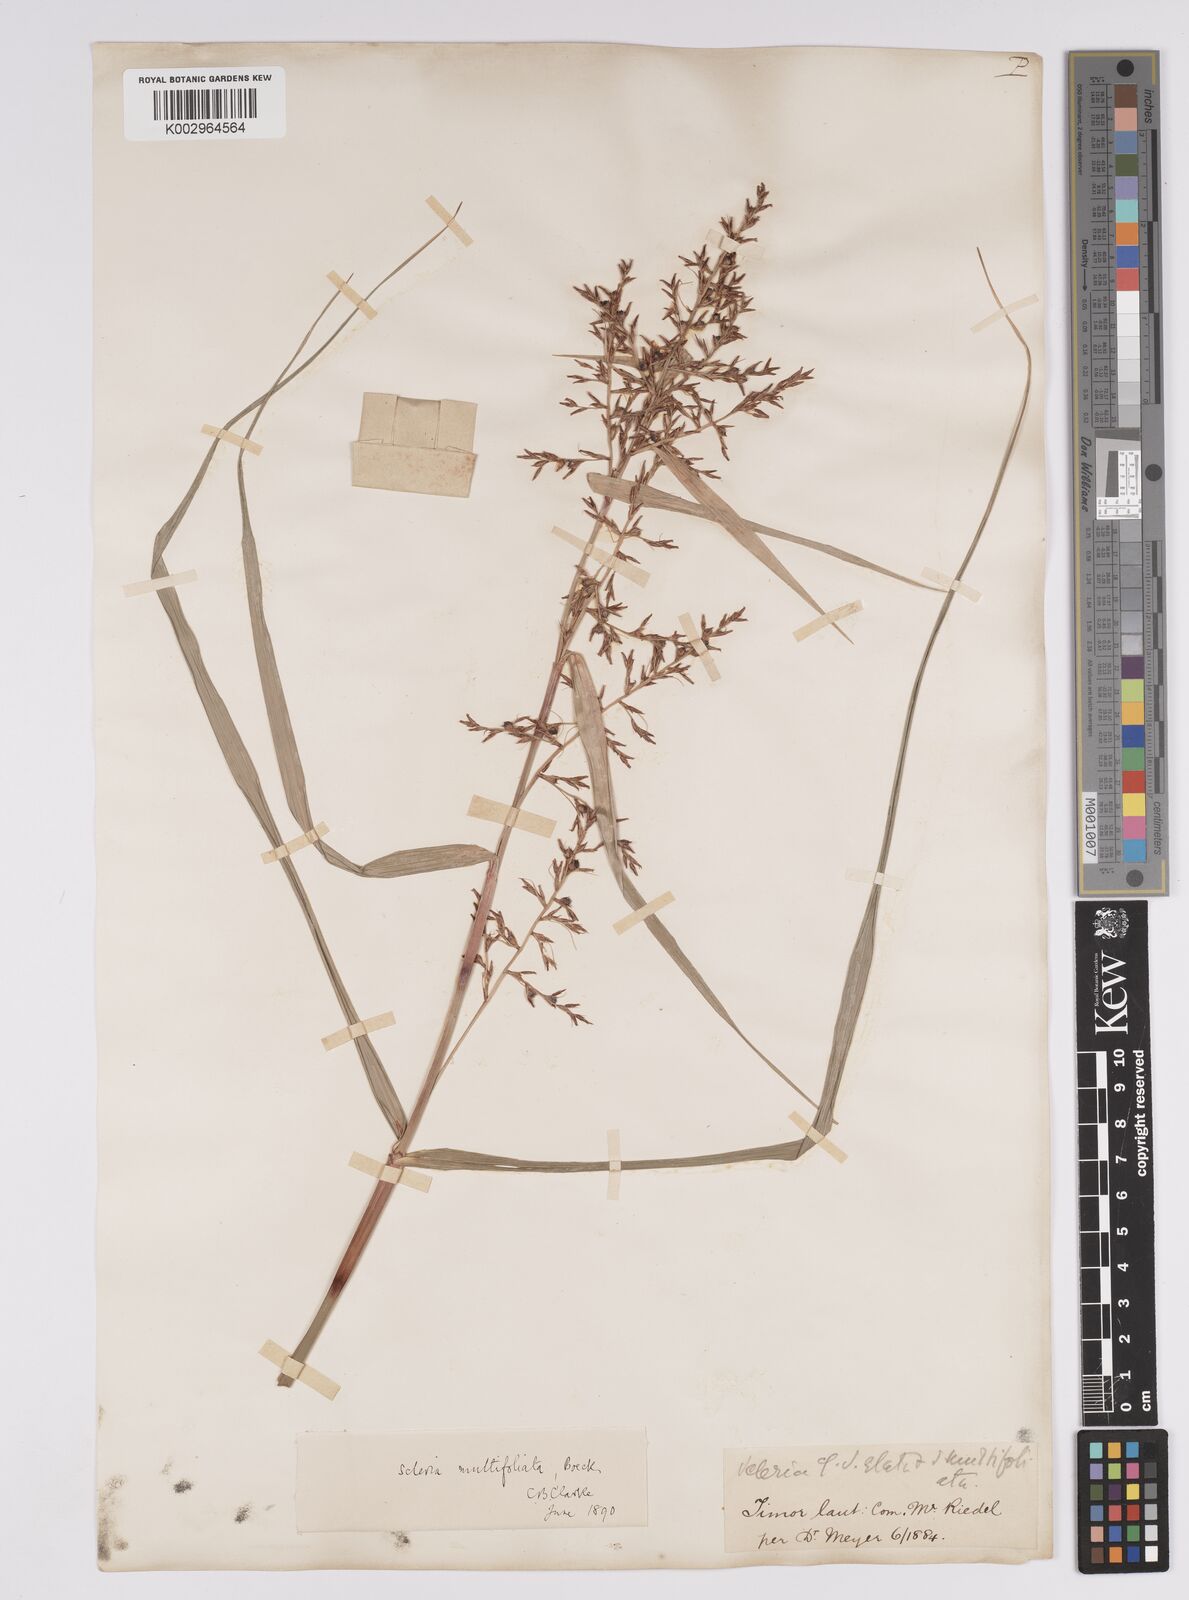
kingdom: Plantae
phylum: Tracheophyta
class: Liliopsida
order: Poales
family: Cyperaceae
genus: Scleria
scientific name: Scleria purpurascens
